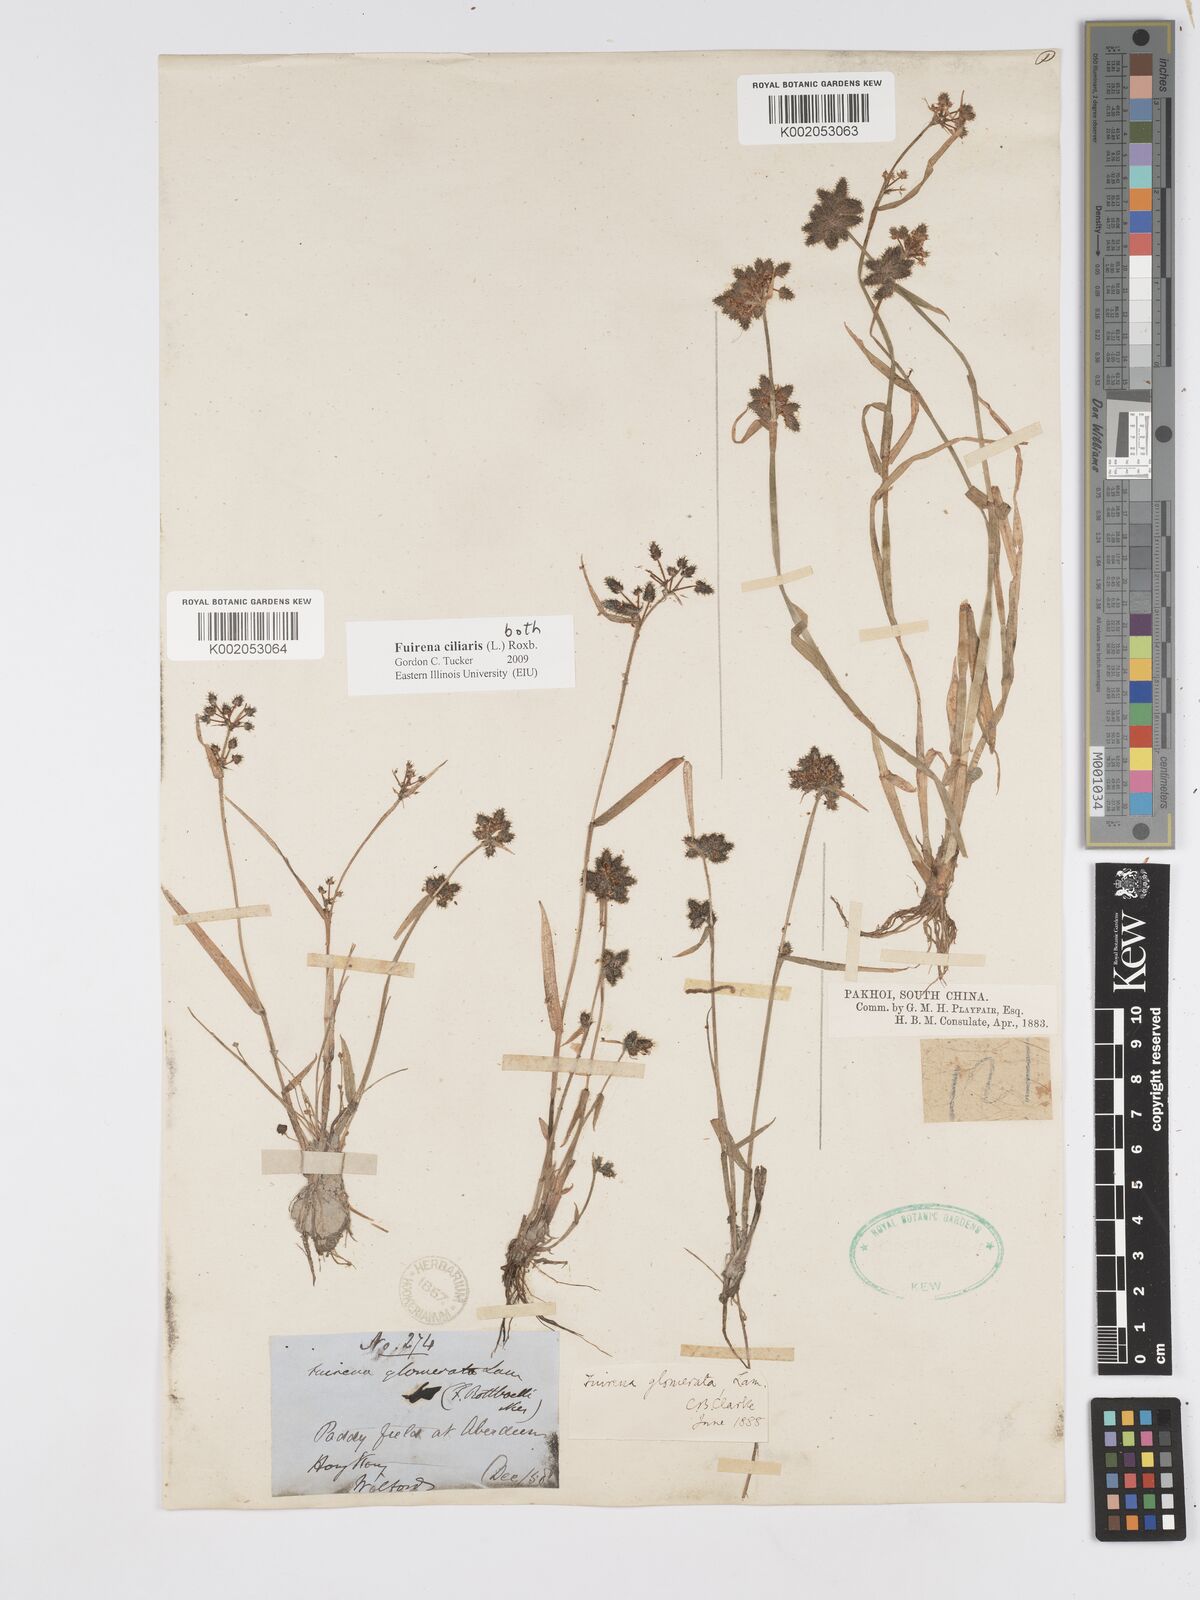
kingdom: Plantae
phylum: Tracheophyta
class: Liliopsida
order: Poales
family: Cyperaceae
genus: Fuirena
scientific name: Fuirena ciliaris
